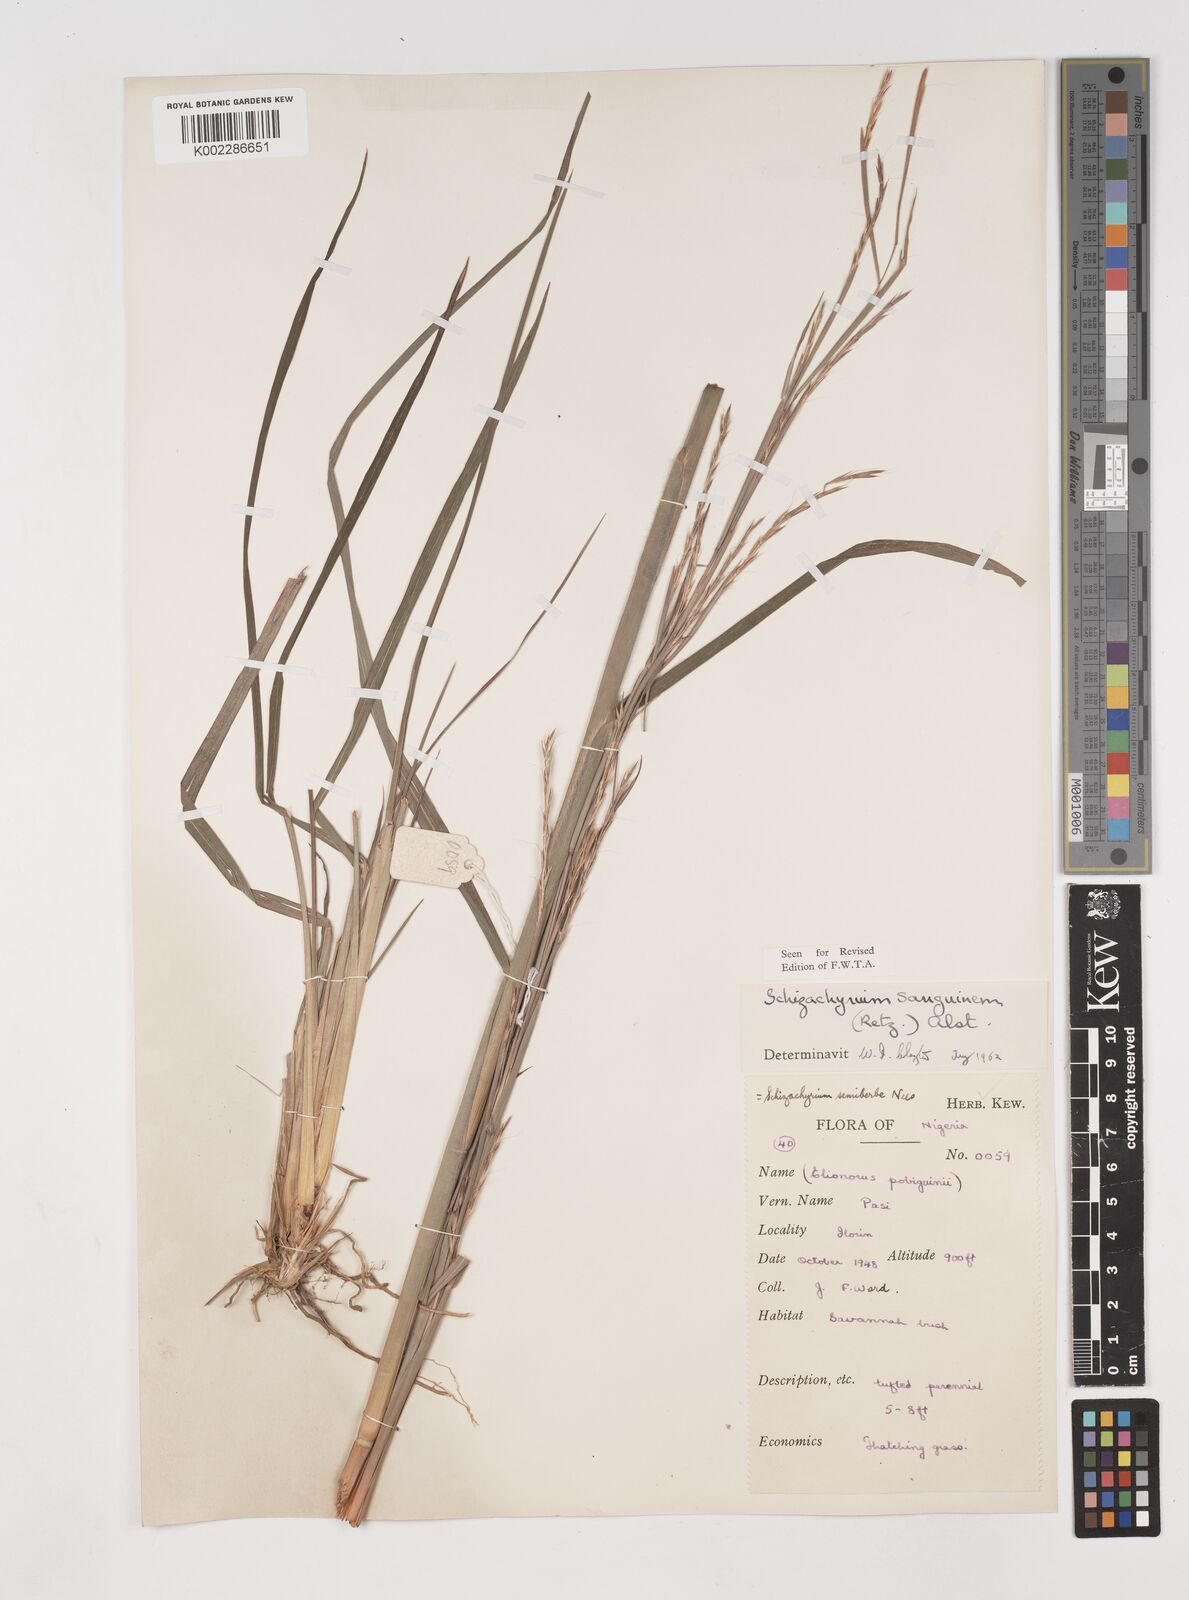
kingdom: Plantae
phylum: Tracheophyta
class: Liliopsida
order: Poales
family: Poaceae
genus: Schizachyrium
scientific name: Schizachyrium sanguineum
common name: Crimson bluestem
